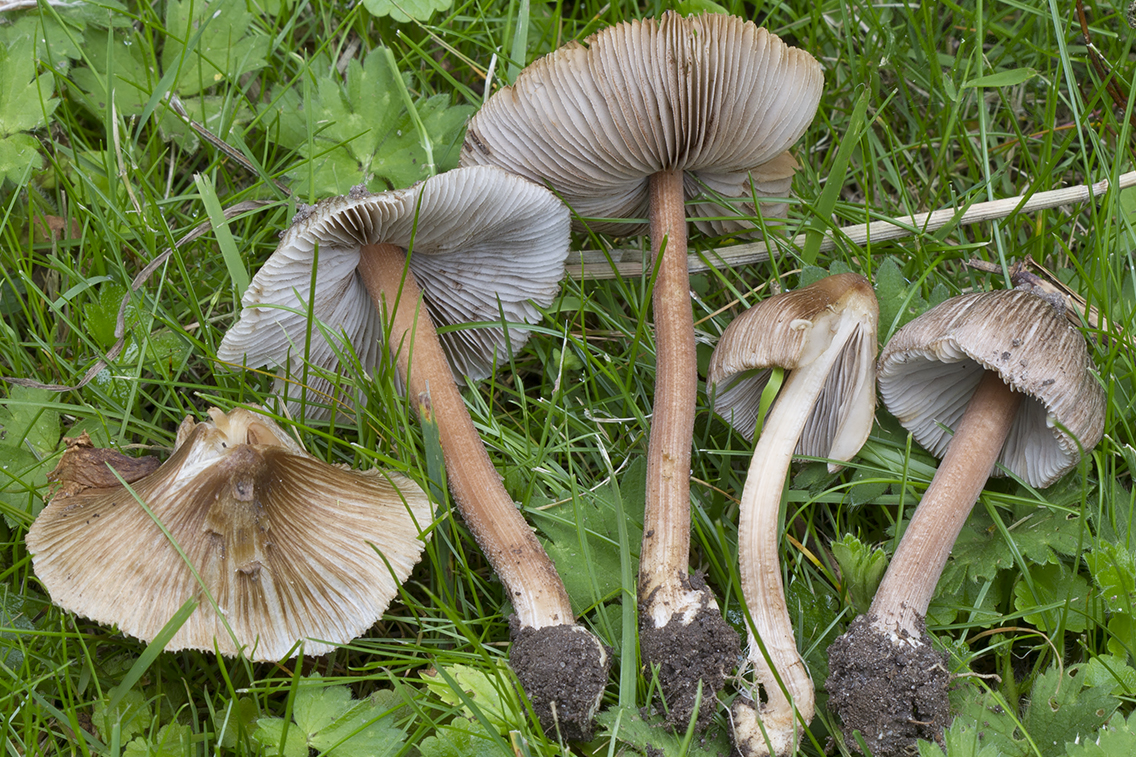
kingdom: Fungi
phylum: Basidiomycota
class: Agaricomycetes
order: Agaricales
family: Inocybaceae
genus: Inocybe
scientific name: Inocybe asterospora
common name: stjernesporet trævlhat
